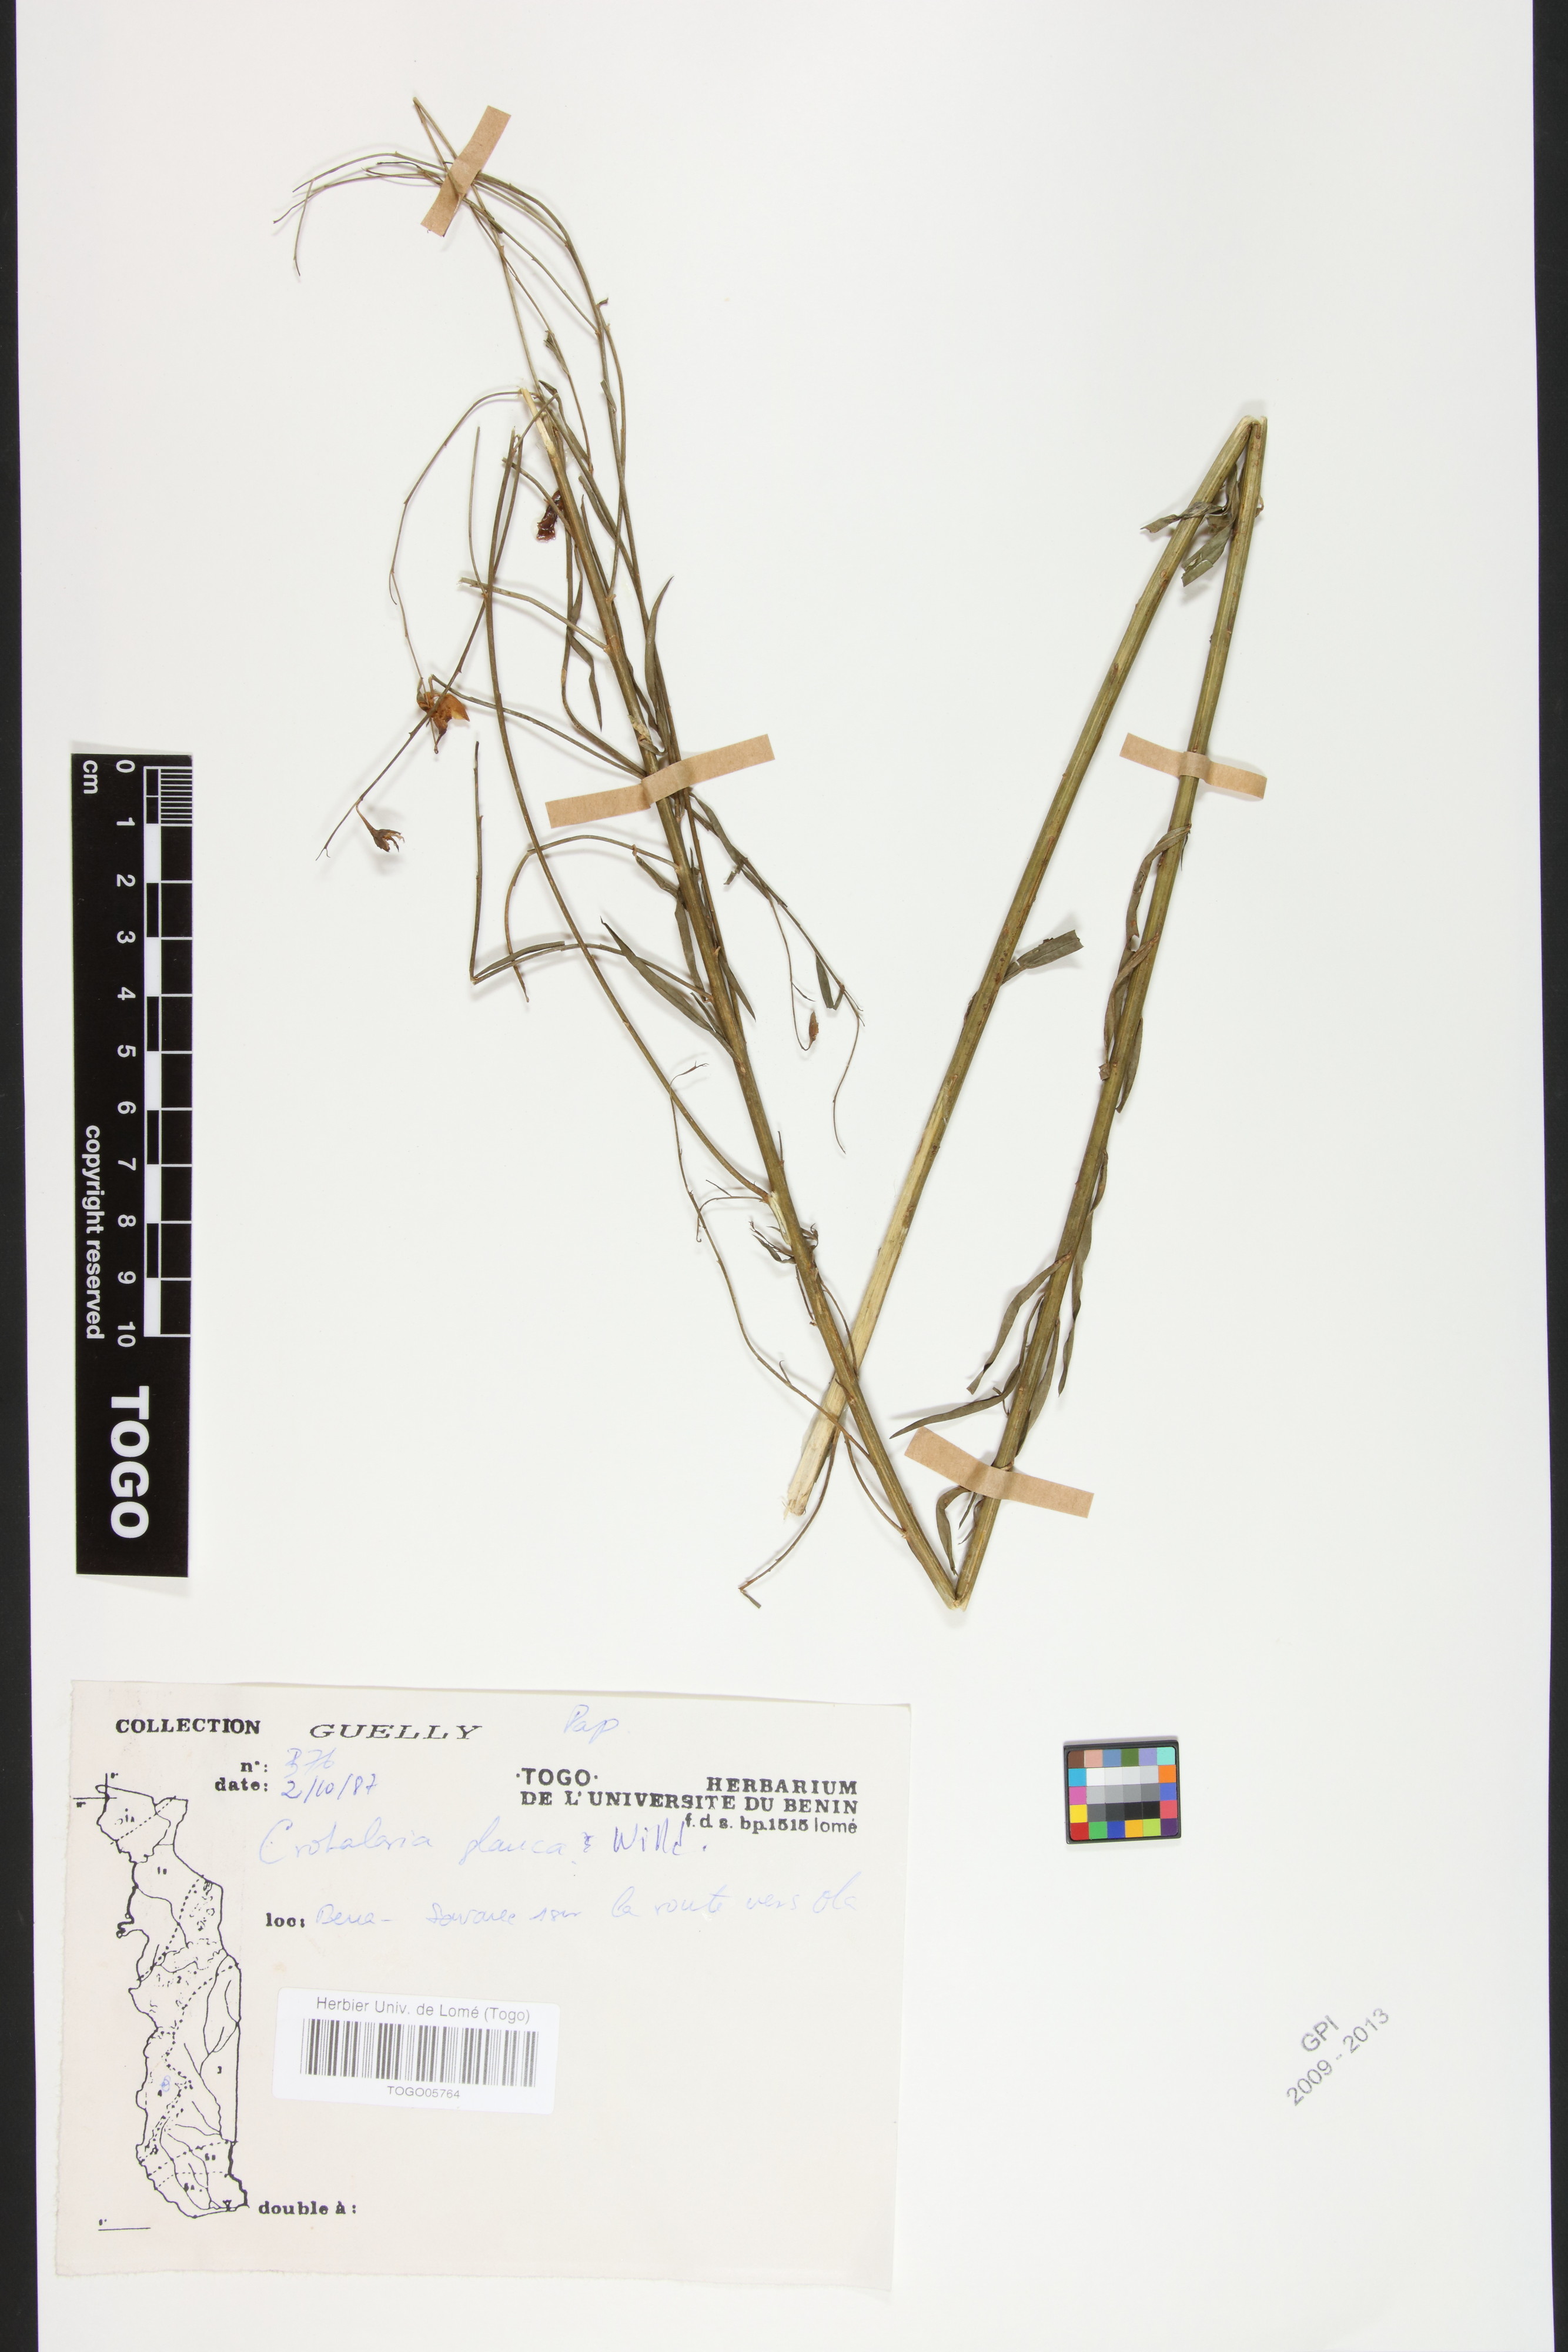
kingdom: Plantae
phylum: Tracheophyta
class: Magnoliopsida
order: Fabales
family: Fabaceae
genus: Crotalaria
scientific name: Crotalaria glauca
